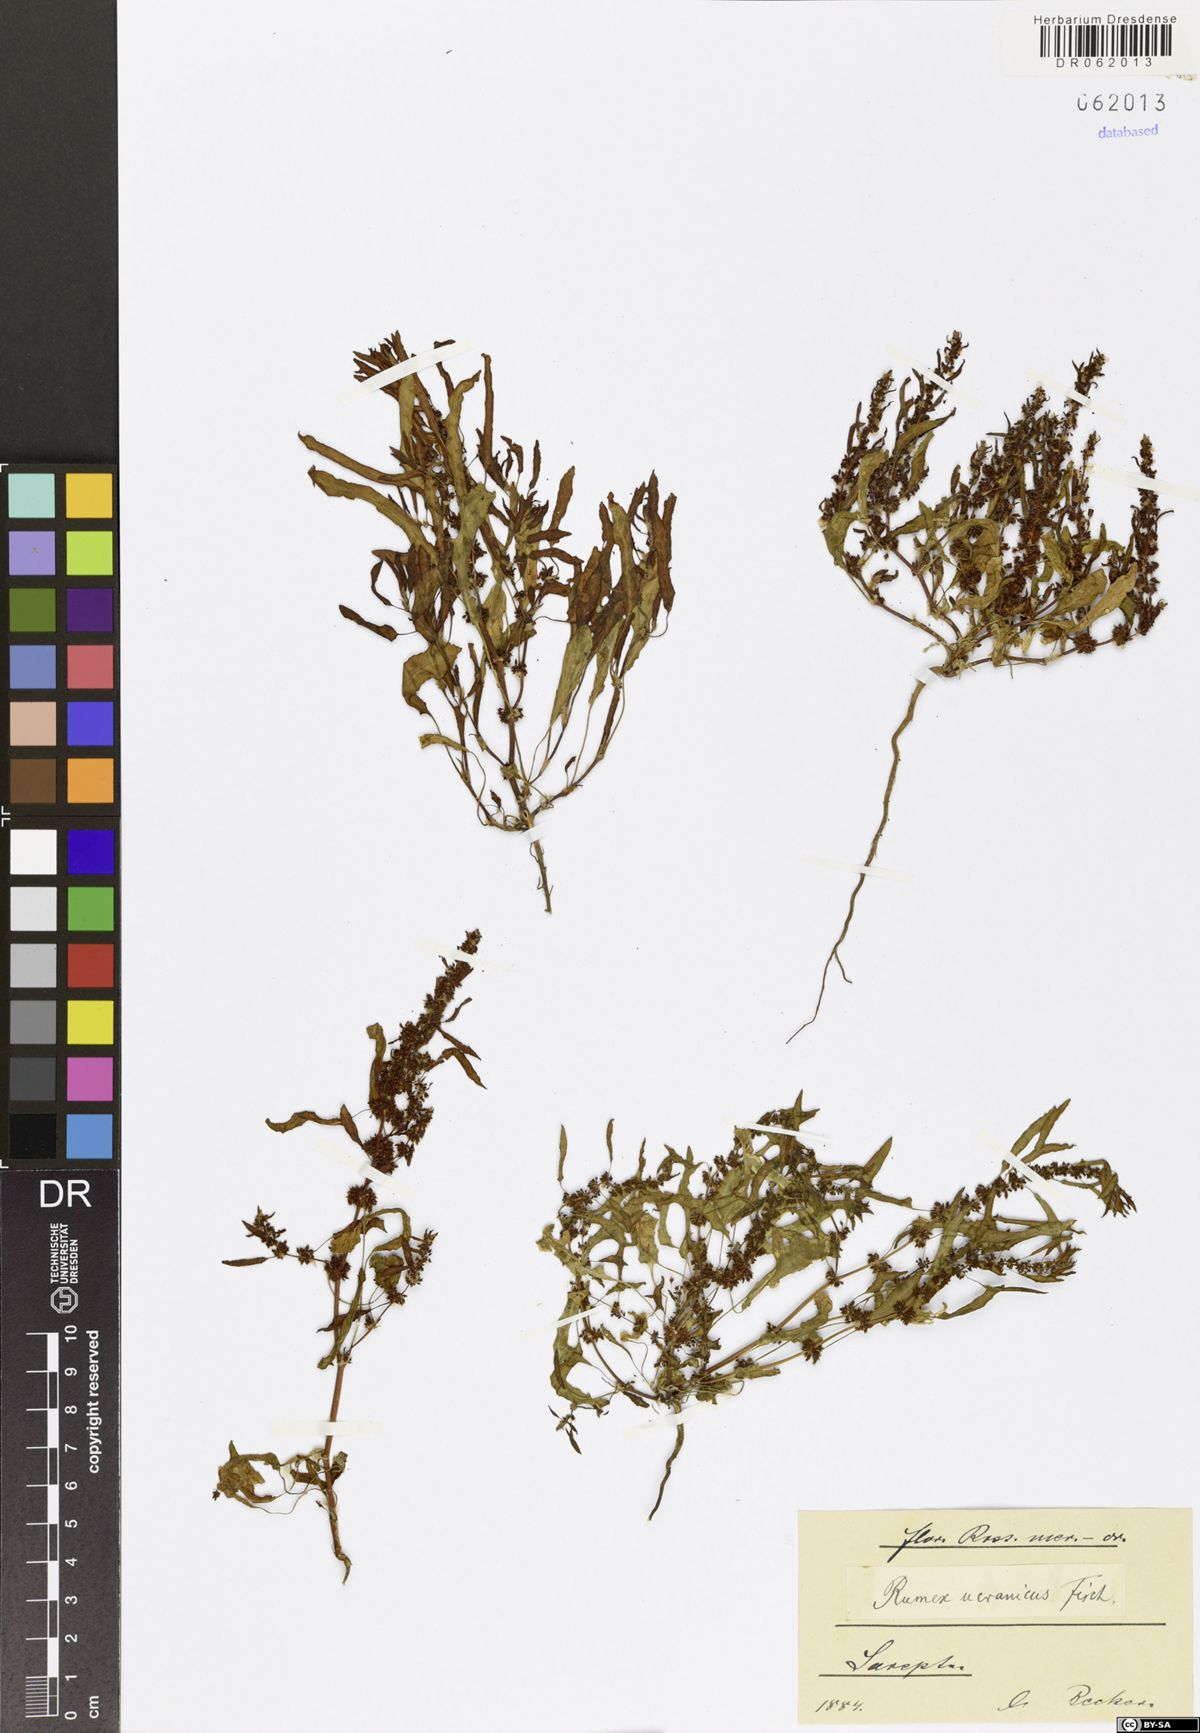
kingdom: Plantae
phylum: Tracheophyta
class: Magnoliopsida
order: Caryophyllales
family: Polygonaceae
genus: Rumex
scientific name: Rumex ucranicus
